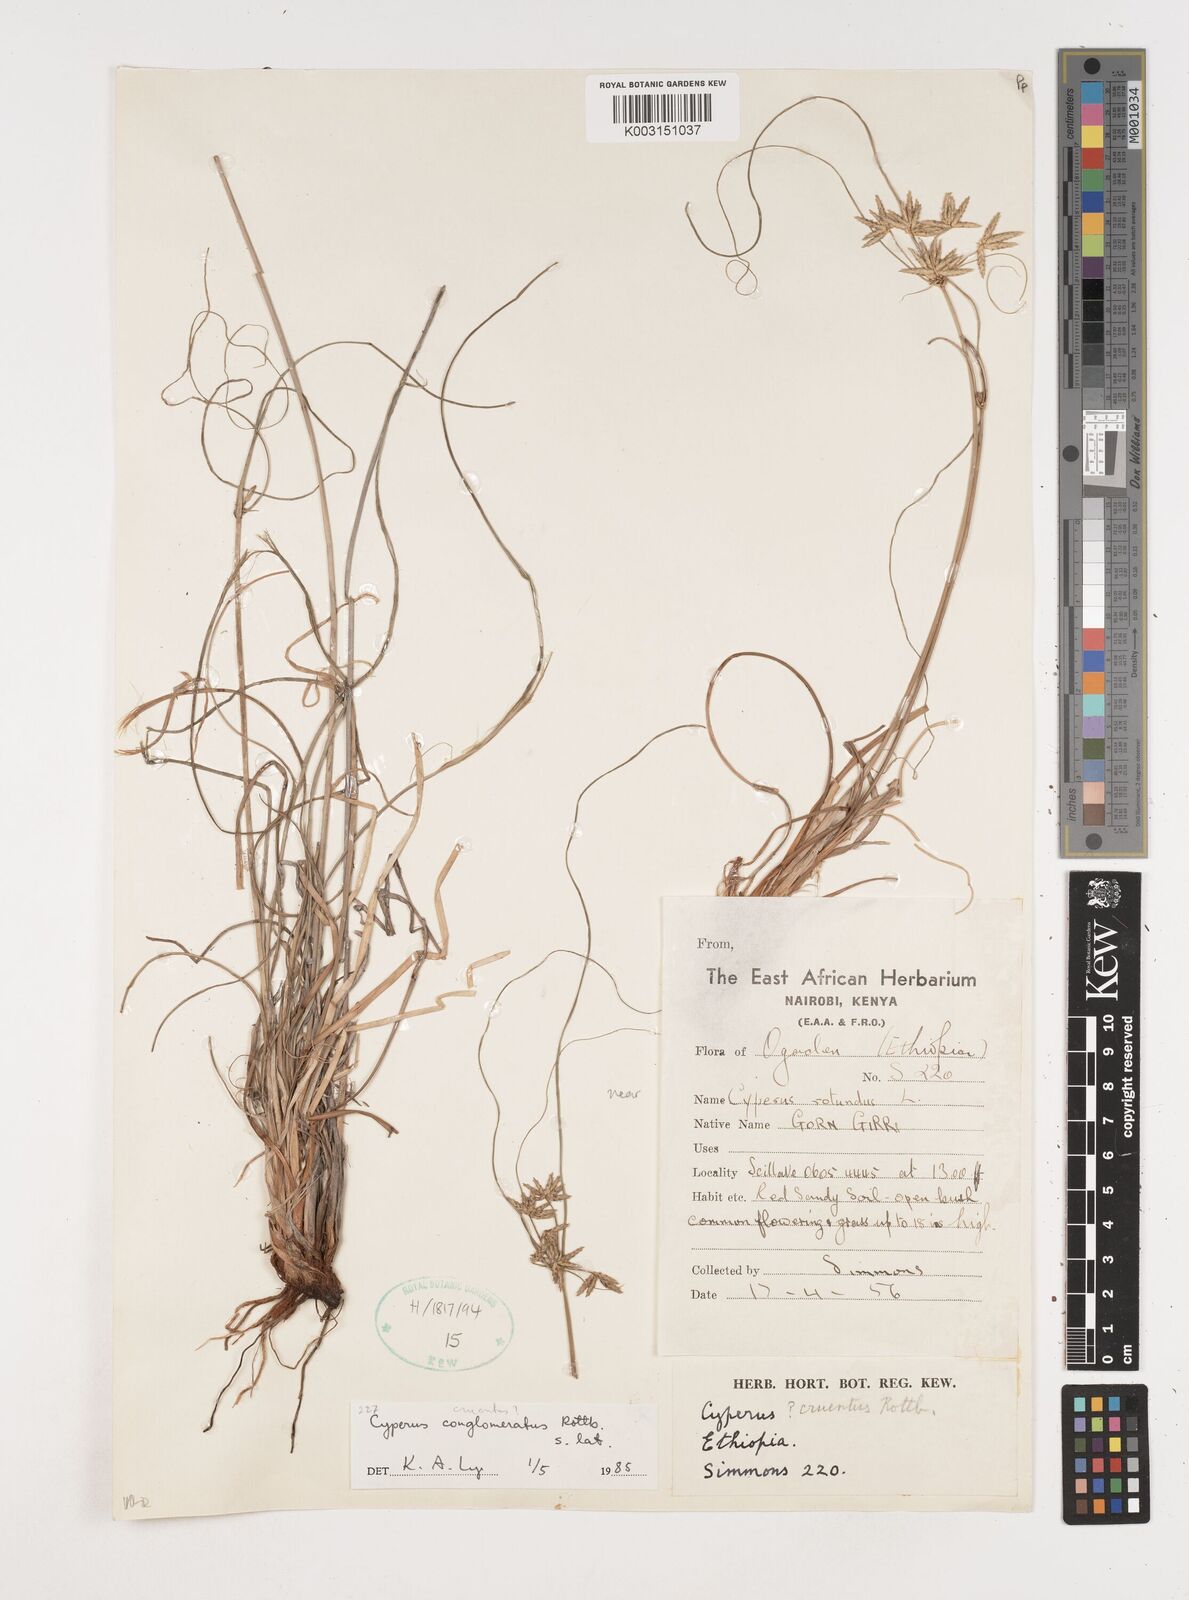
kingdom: Plantae
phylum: Tracheophyta
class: Liliopsida
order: Poales
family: Cyperaceae
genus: Cyperus
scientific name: Cyperus conglomeratus
